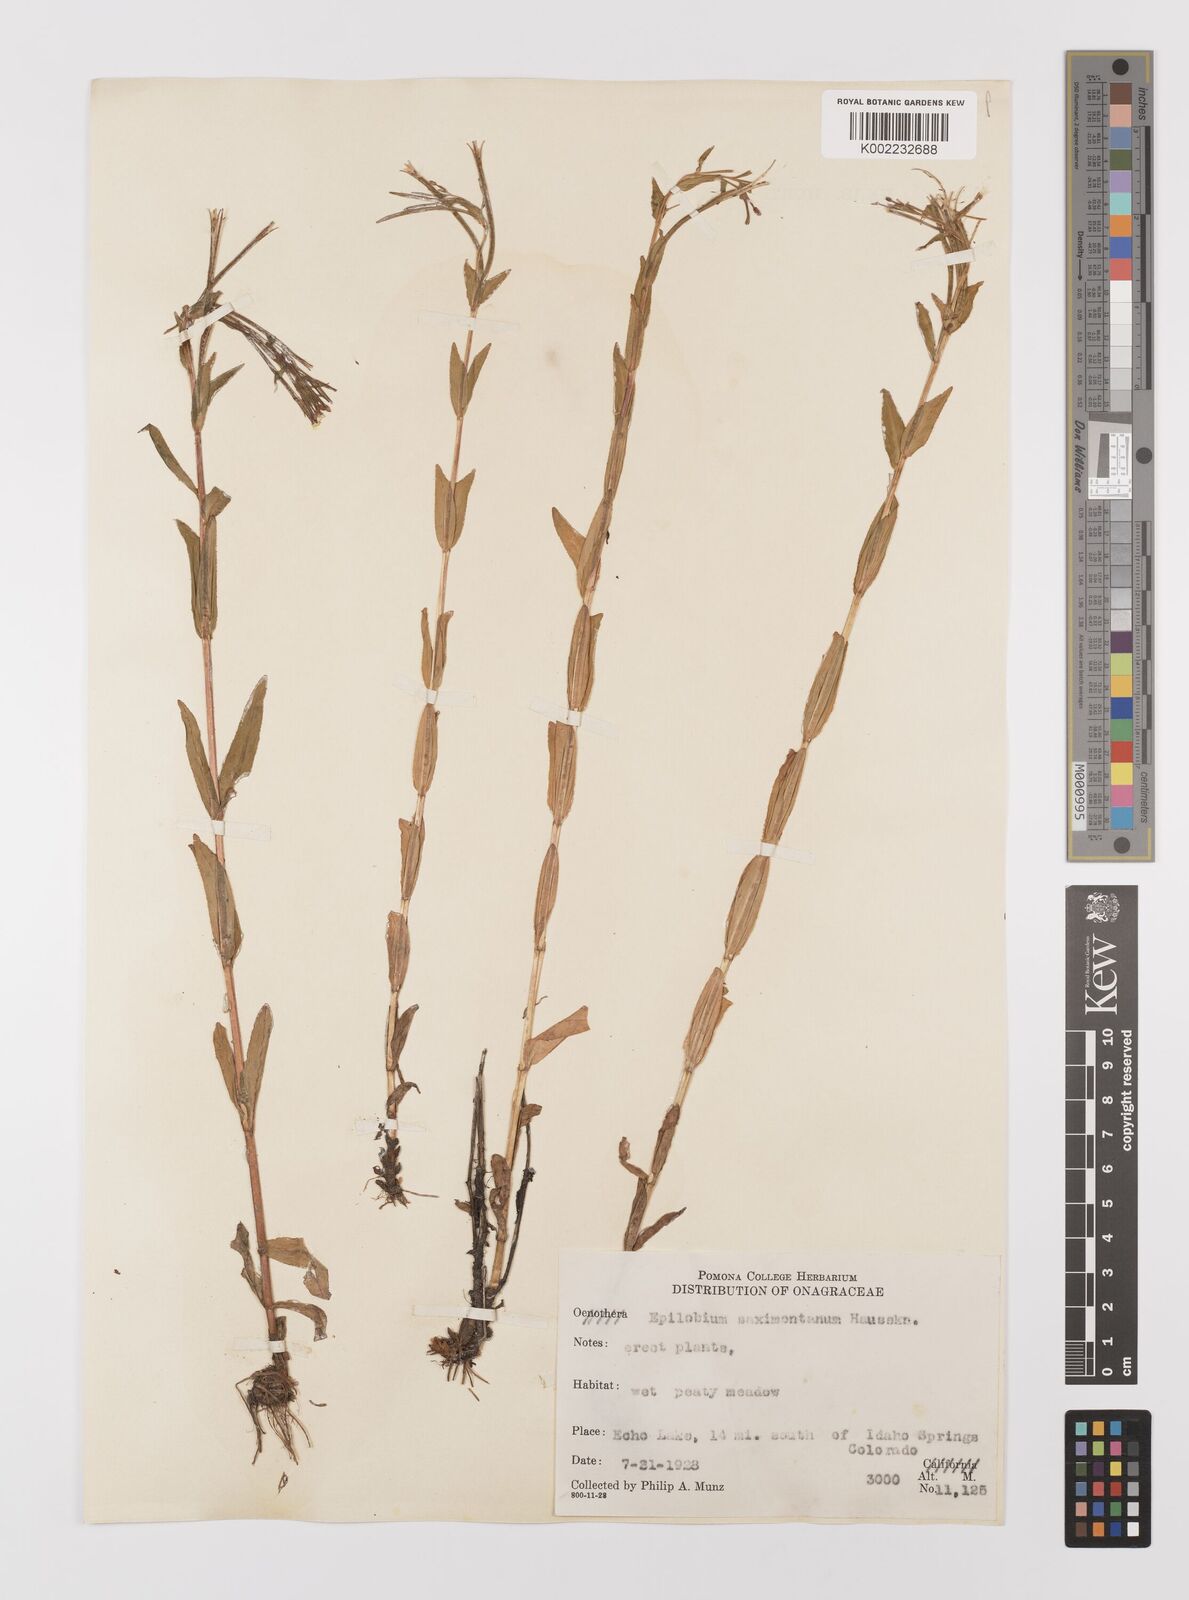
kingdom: Plantae
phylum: Tracheophyta
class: Magnoliopsida
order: Myrtales
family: Onagraceae
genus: Epilobium
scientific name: Epilobium saximontanum
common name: Rocky mountain willowherb
